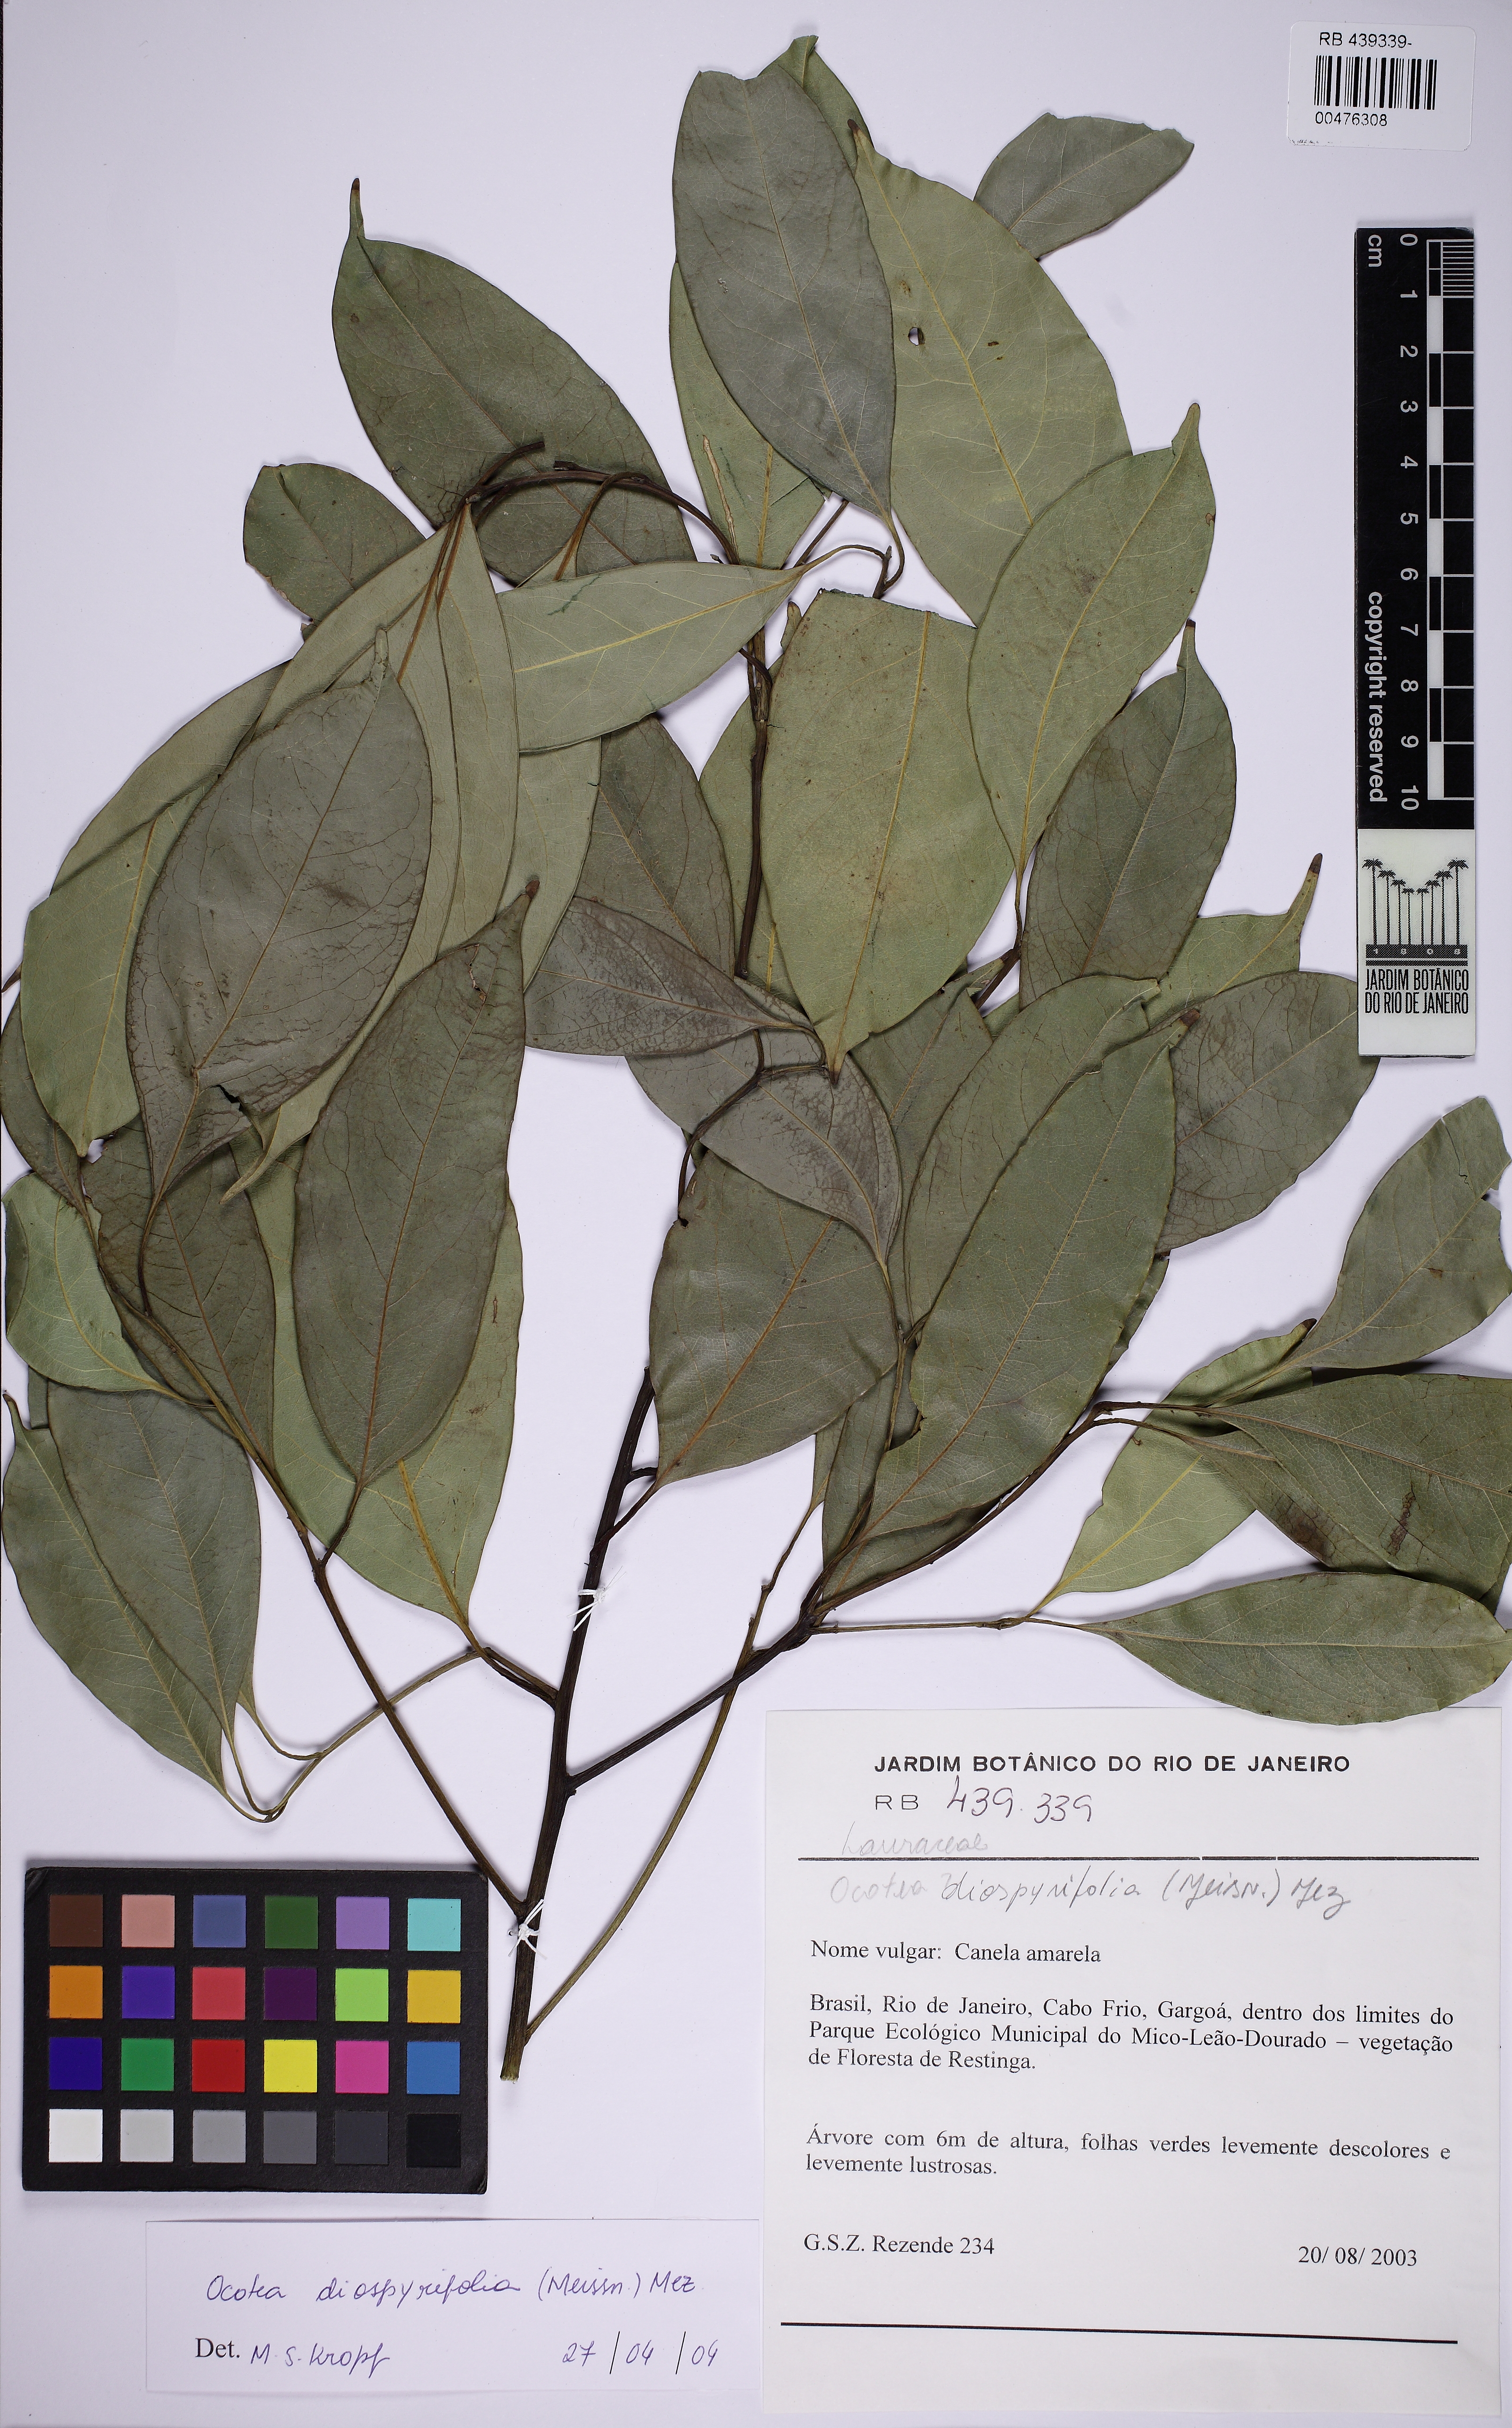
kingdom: Plantae
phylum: Tracheophyta
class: Magnoliopsida
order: Laurales
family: Lauraceae
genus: Ocotea
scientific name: Ocotea diospyrifolia
